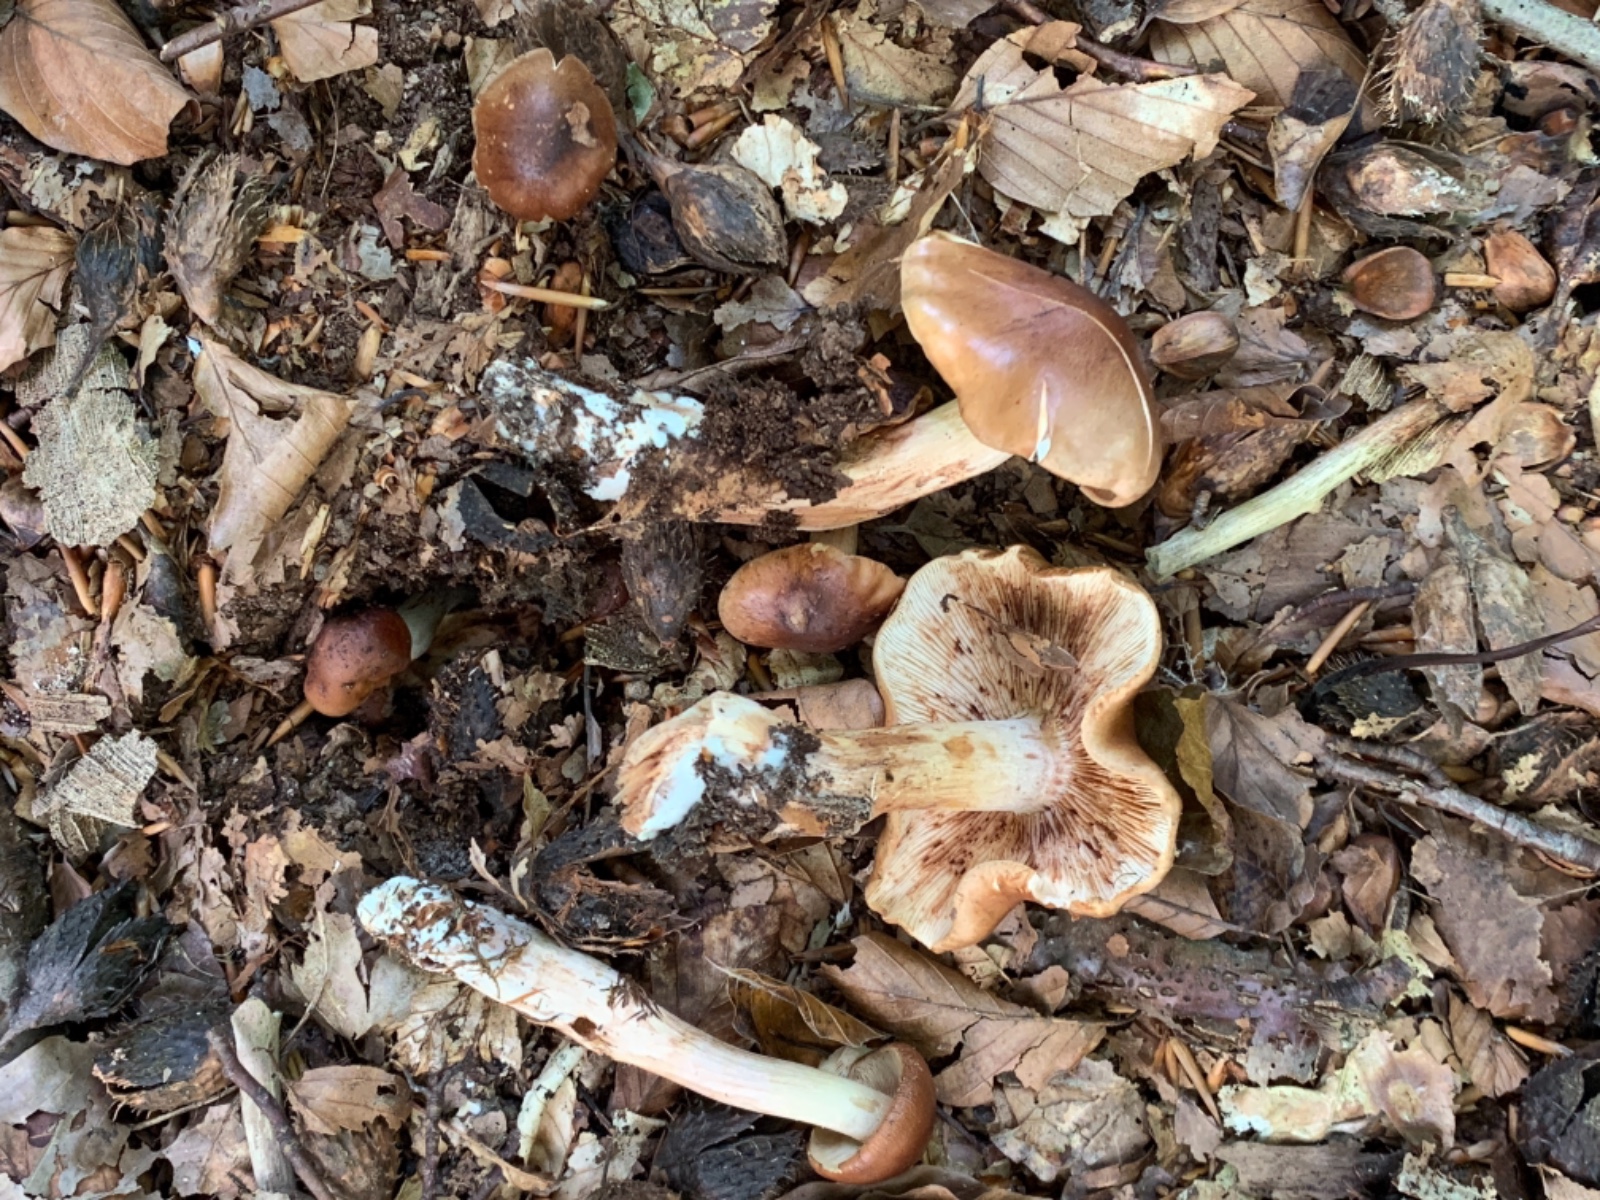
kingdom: Fungi
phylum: Basidiomycota
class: Agaricomycetes
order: Agaricales
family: Tricholomataceae
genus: Tricholoma
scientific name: Tricholoma ustale
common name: sveden ridderhat
